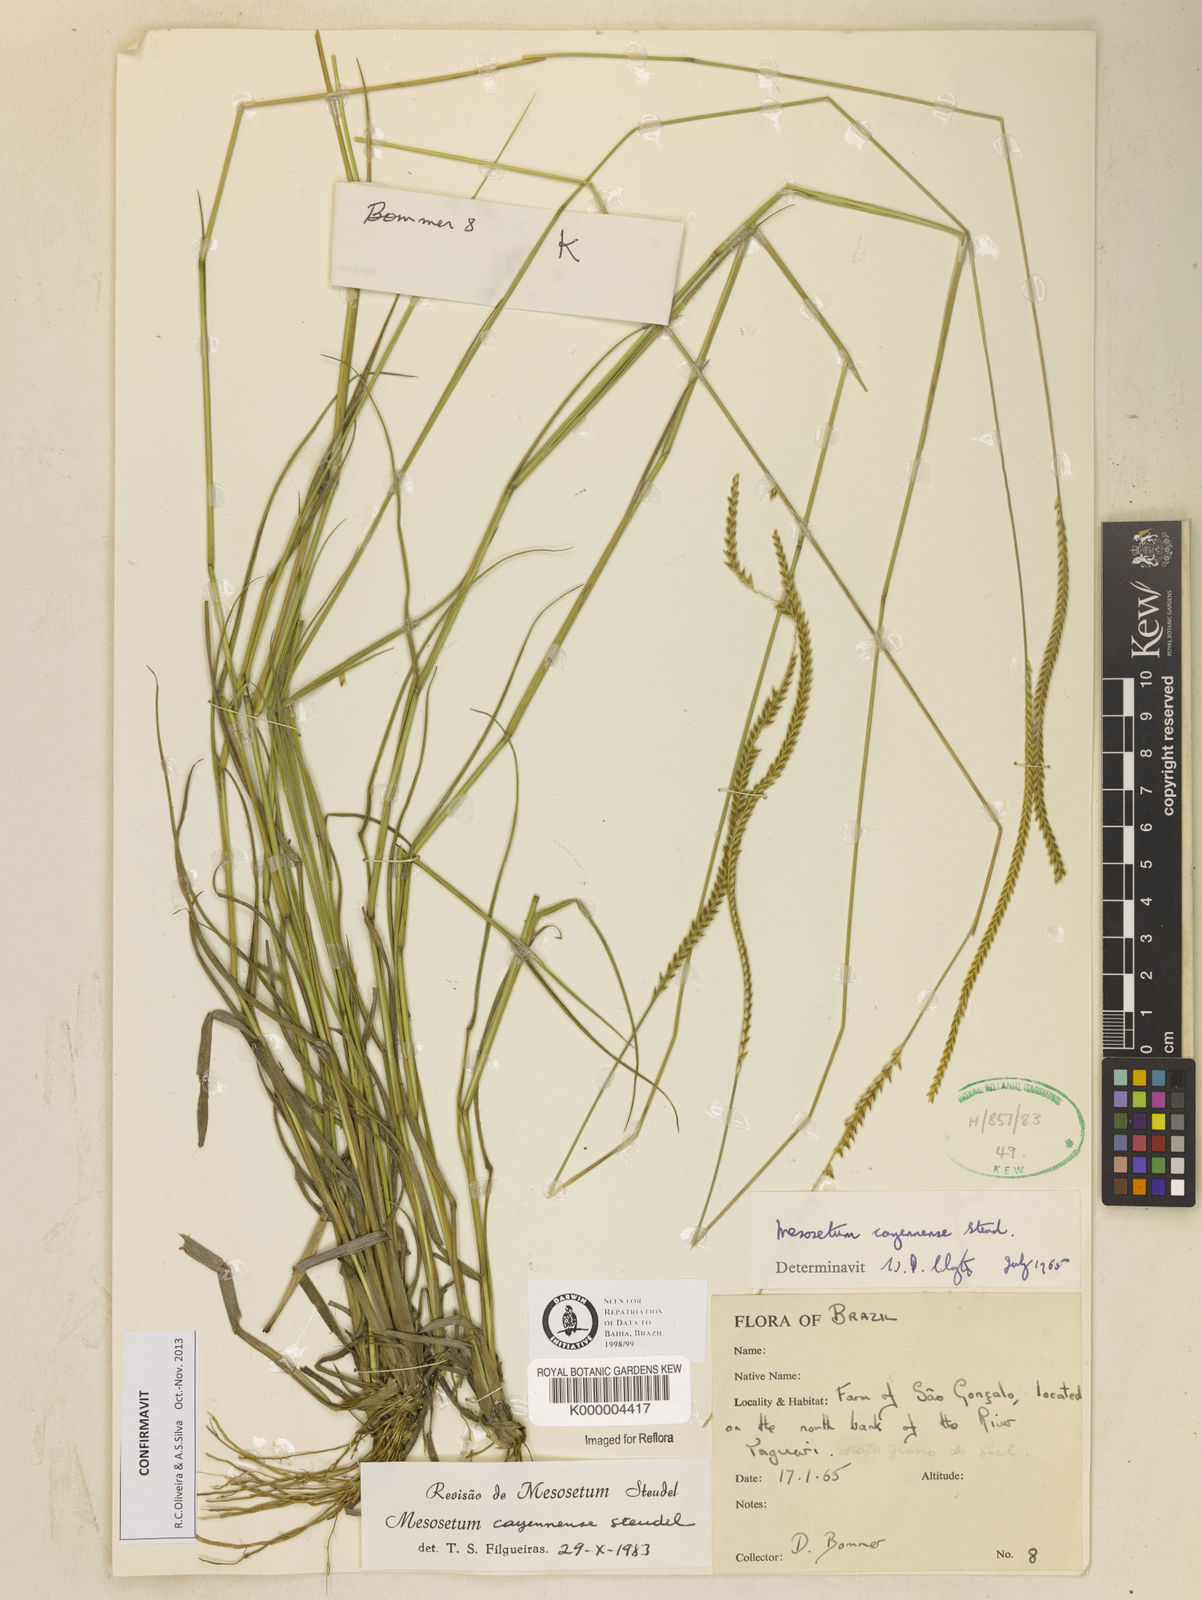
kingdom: Plantae
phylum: Tracheophyta
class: Liliopsida
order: Poales
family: Poaceae
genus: Mesosetum
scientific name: Mesosetum cayennense
